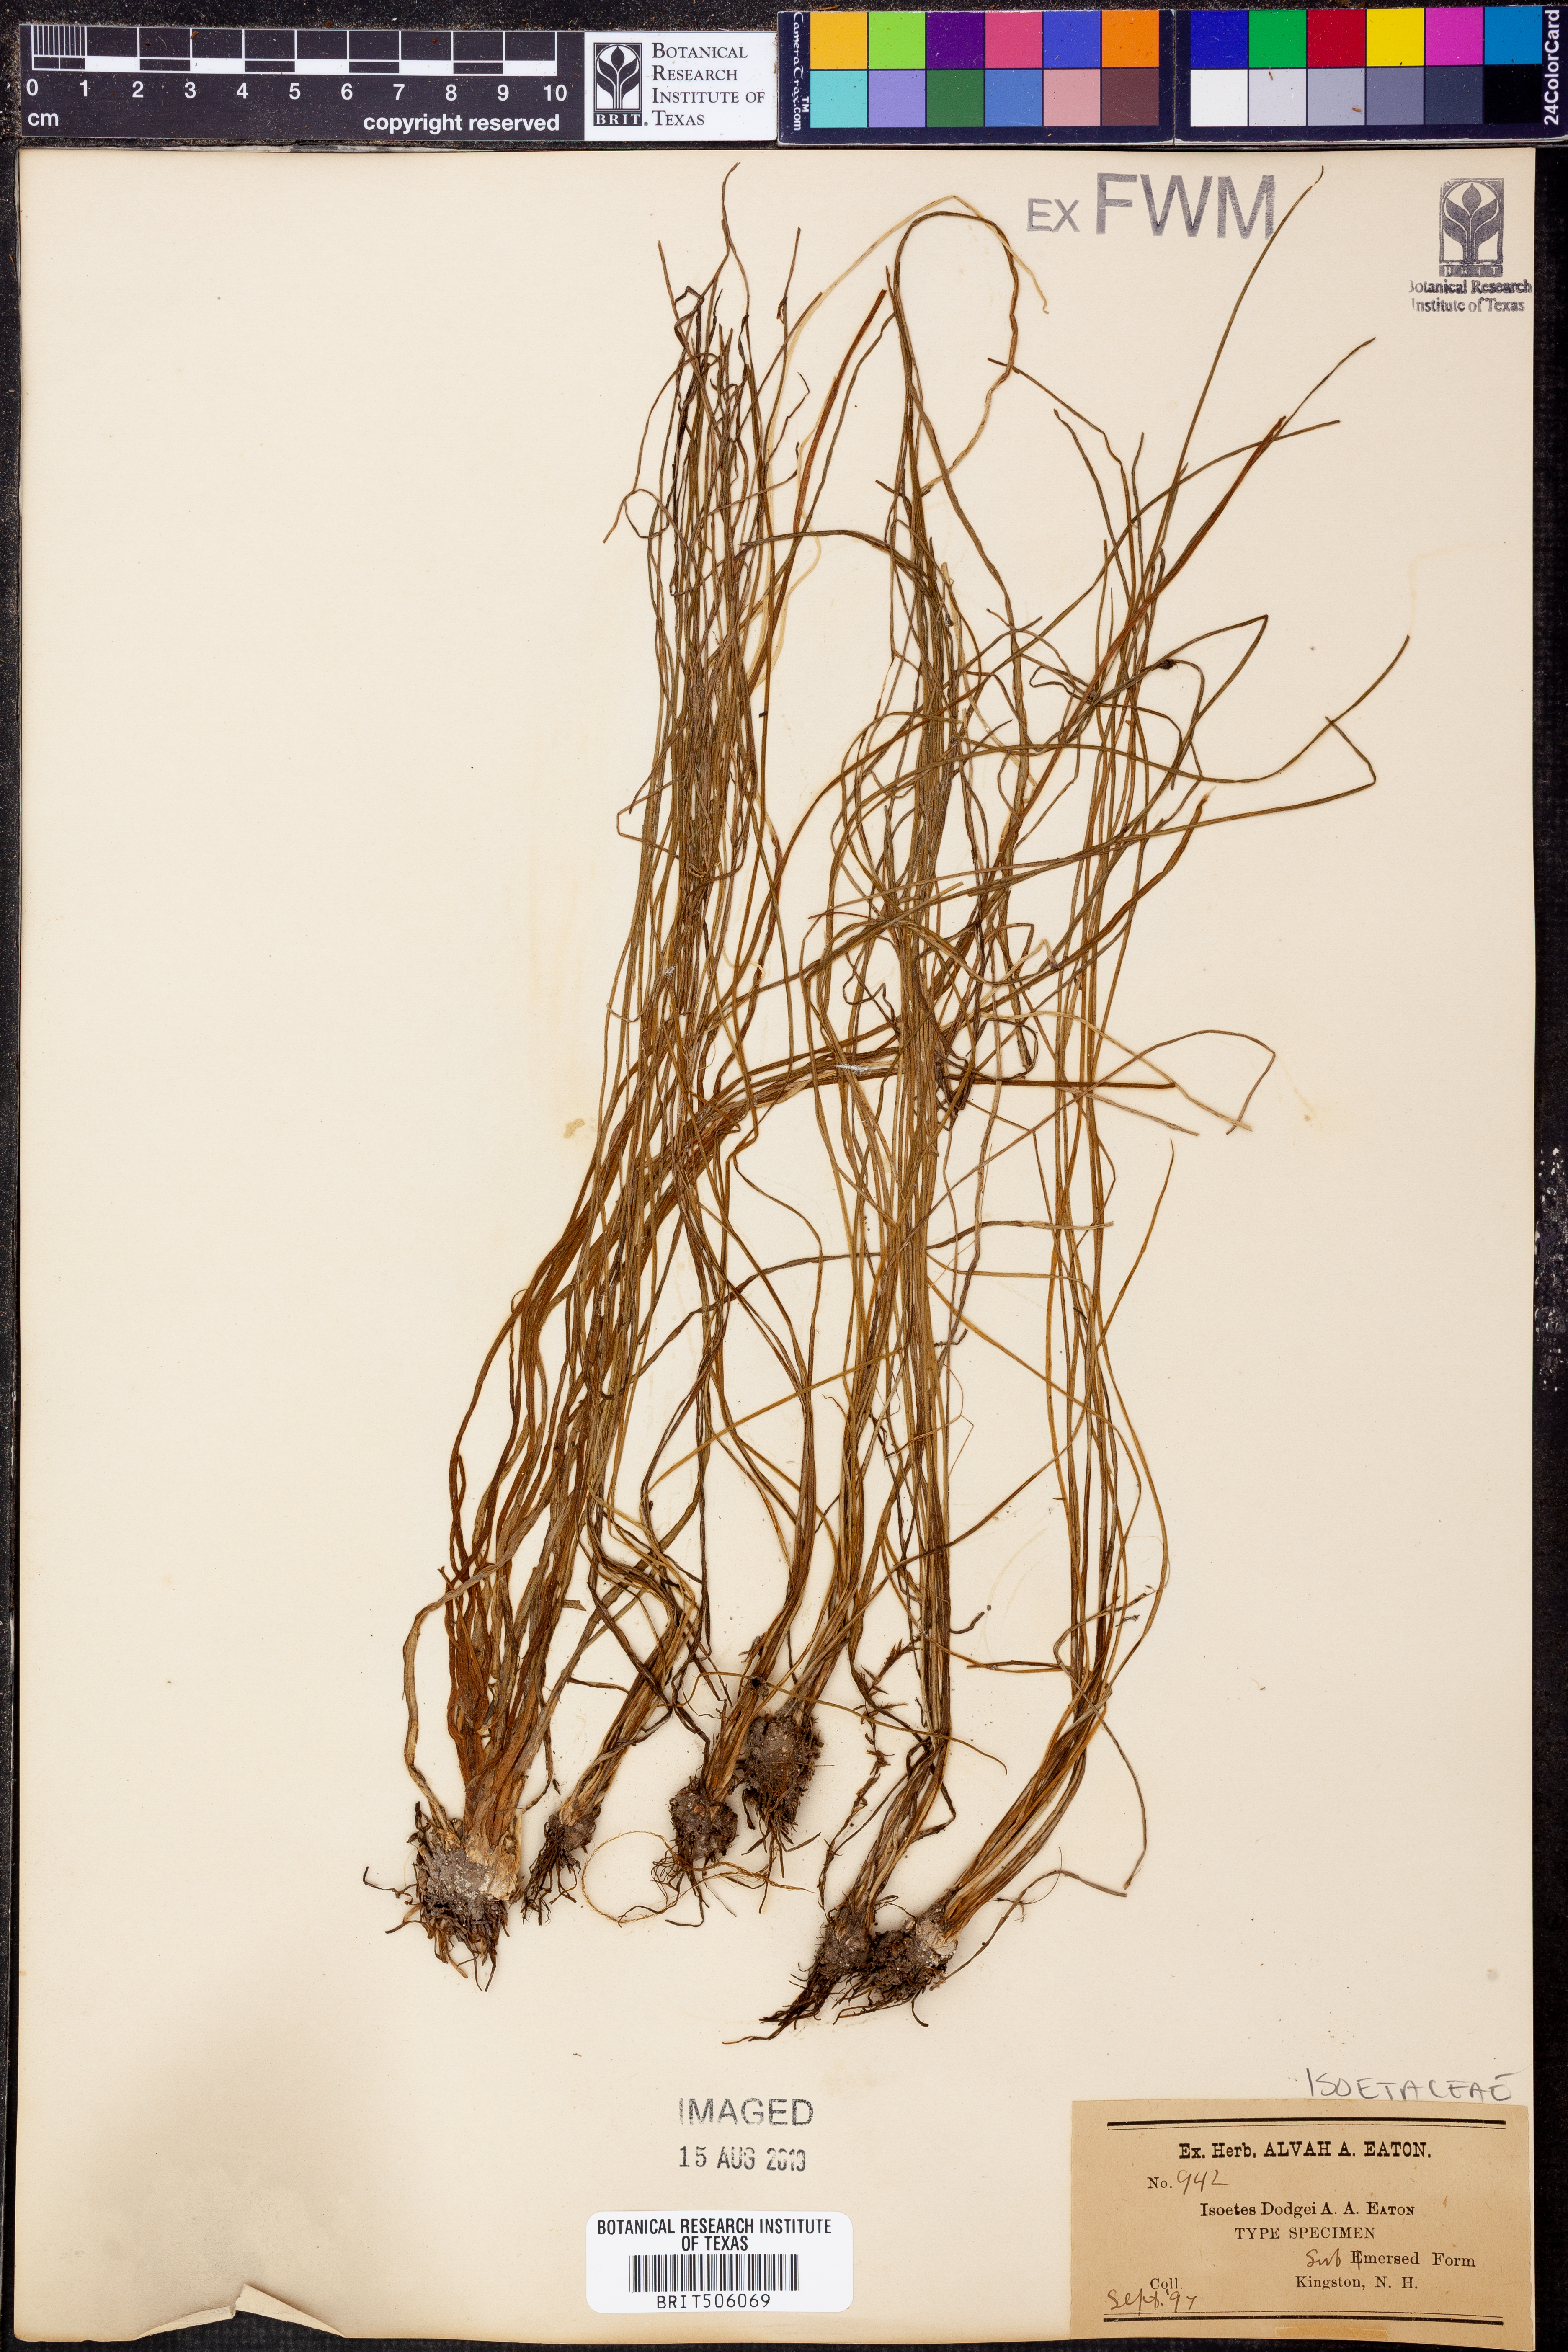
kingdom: Plantae
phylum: Tracheophyta
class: Lycopodiopsida
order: Isoetales
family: Isoetaceae
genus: Isoetes
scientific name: Isoetes dodgei
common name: Dodge's quillwort
